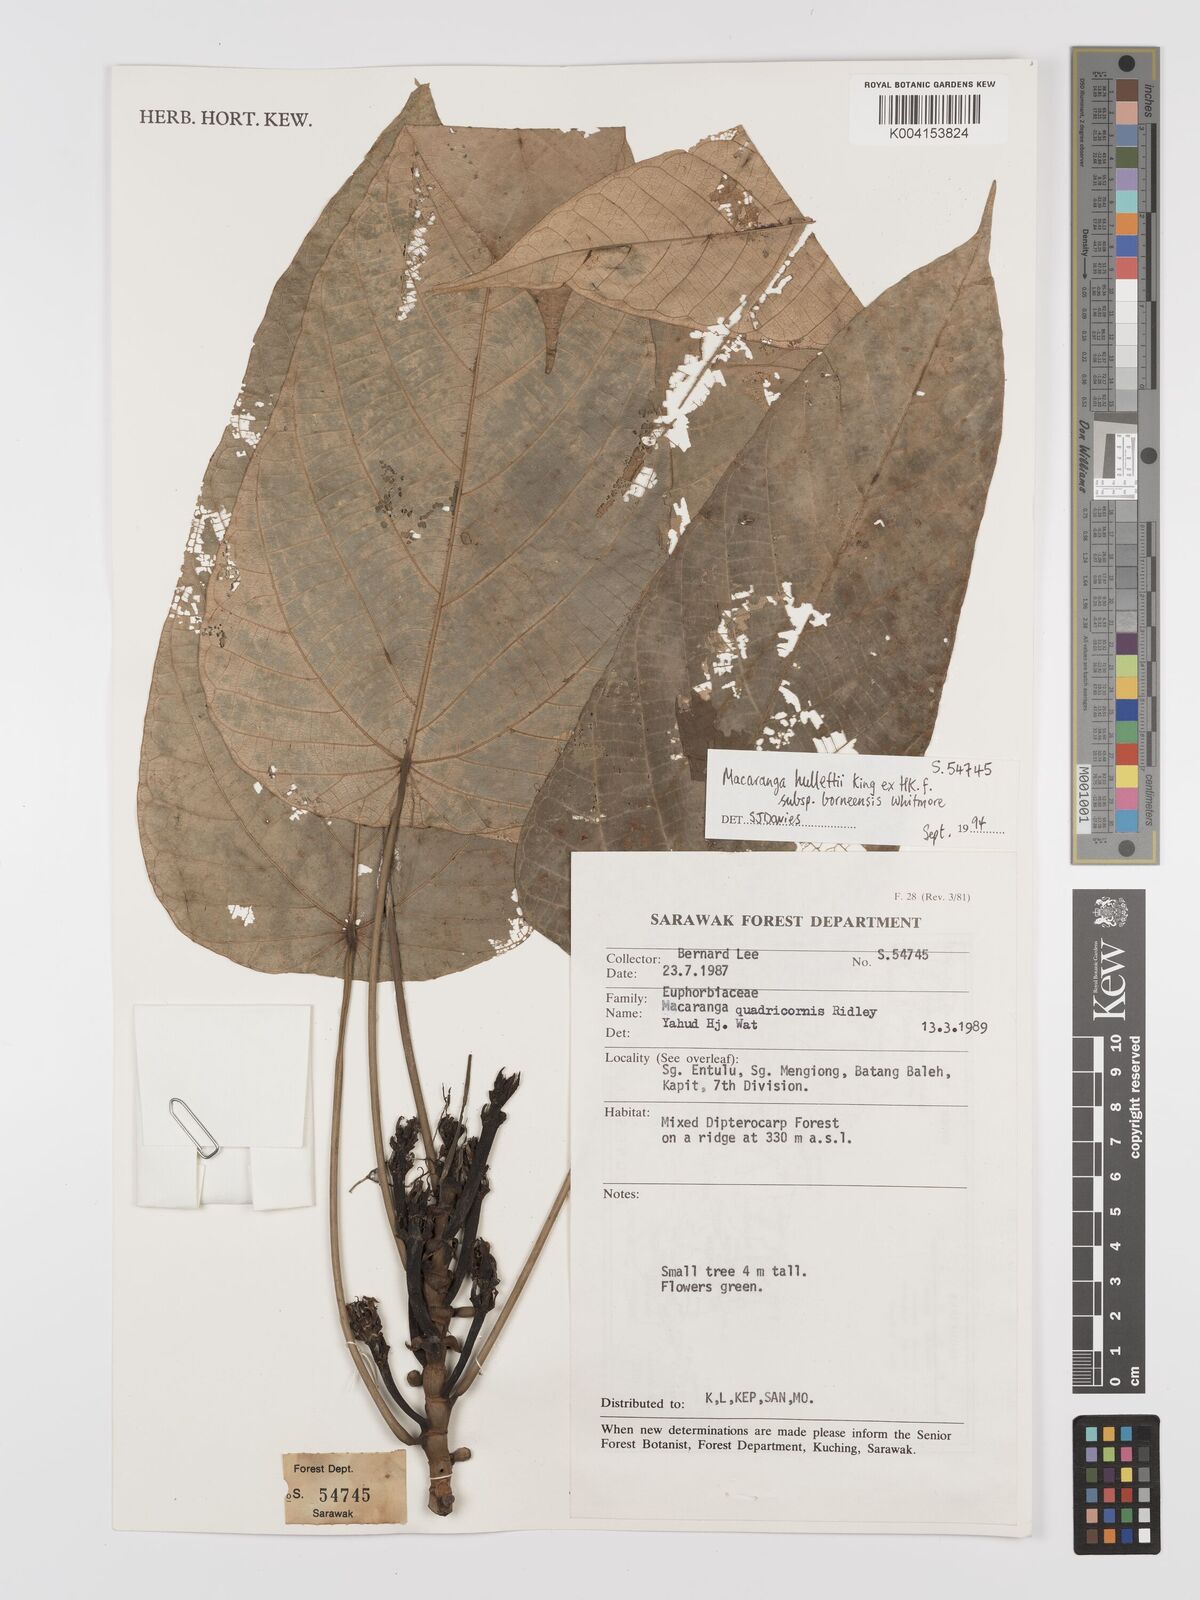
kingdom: Plantae
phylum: Tracheophyta
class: Magnoliopsida
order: Malpighiales
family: Euphorbiaceae
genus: Macaranga
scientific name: Macaranga hullettii
